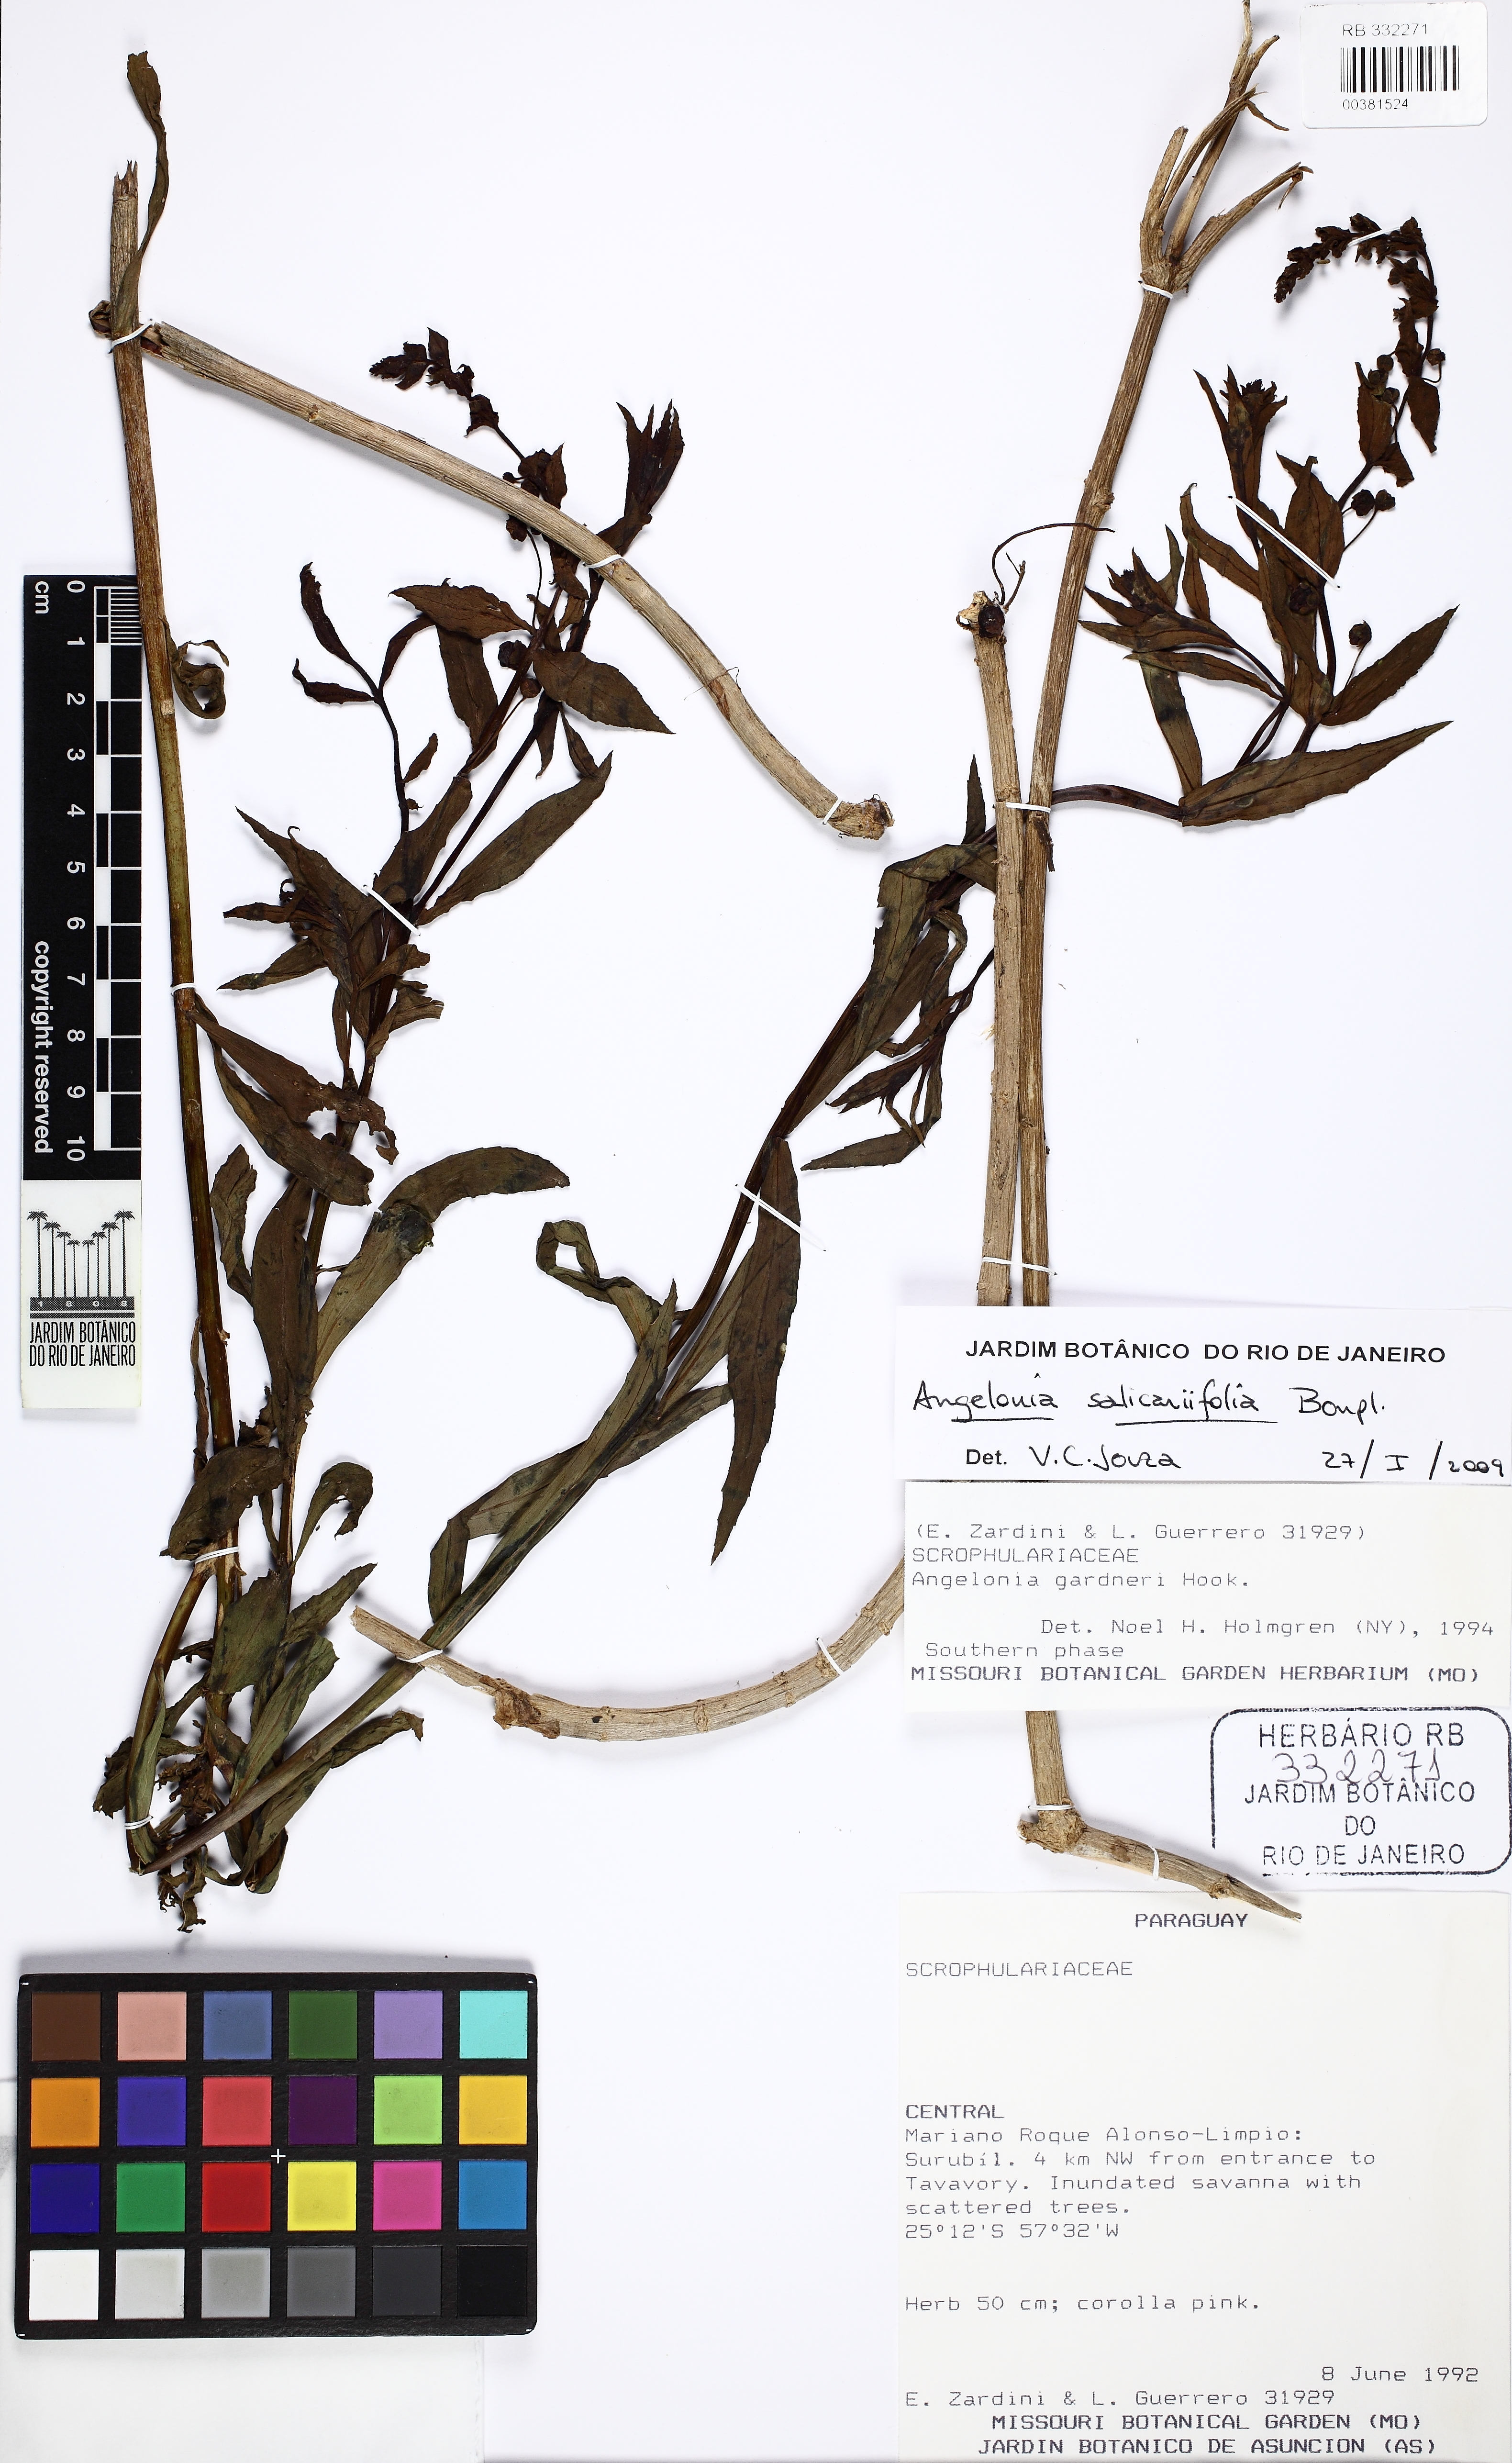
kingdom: Plantae
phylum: Tracheophyta
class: Magnoliopsida
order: Lamiales
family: Plantaginaceae
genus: Angelonia
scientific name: Angelonia salicariifolia
